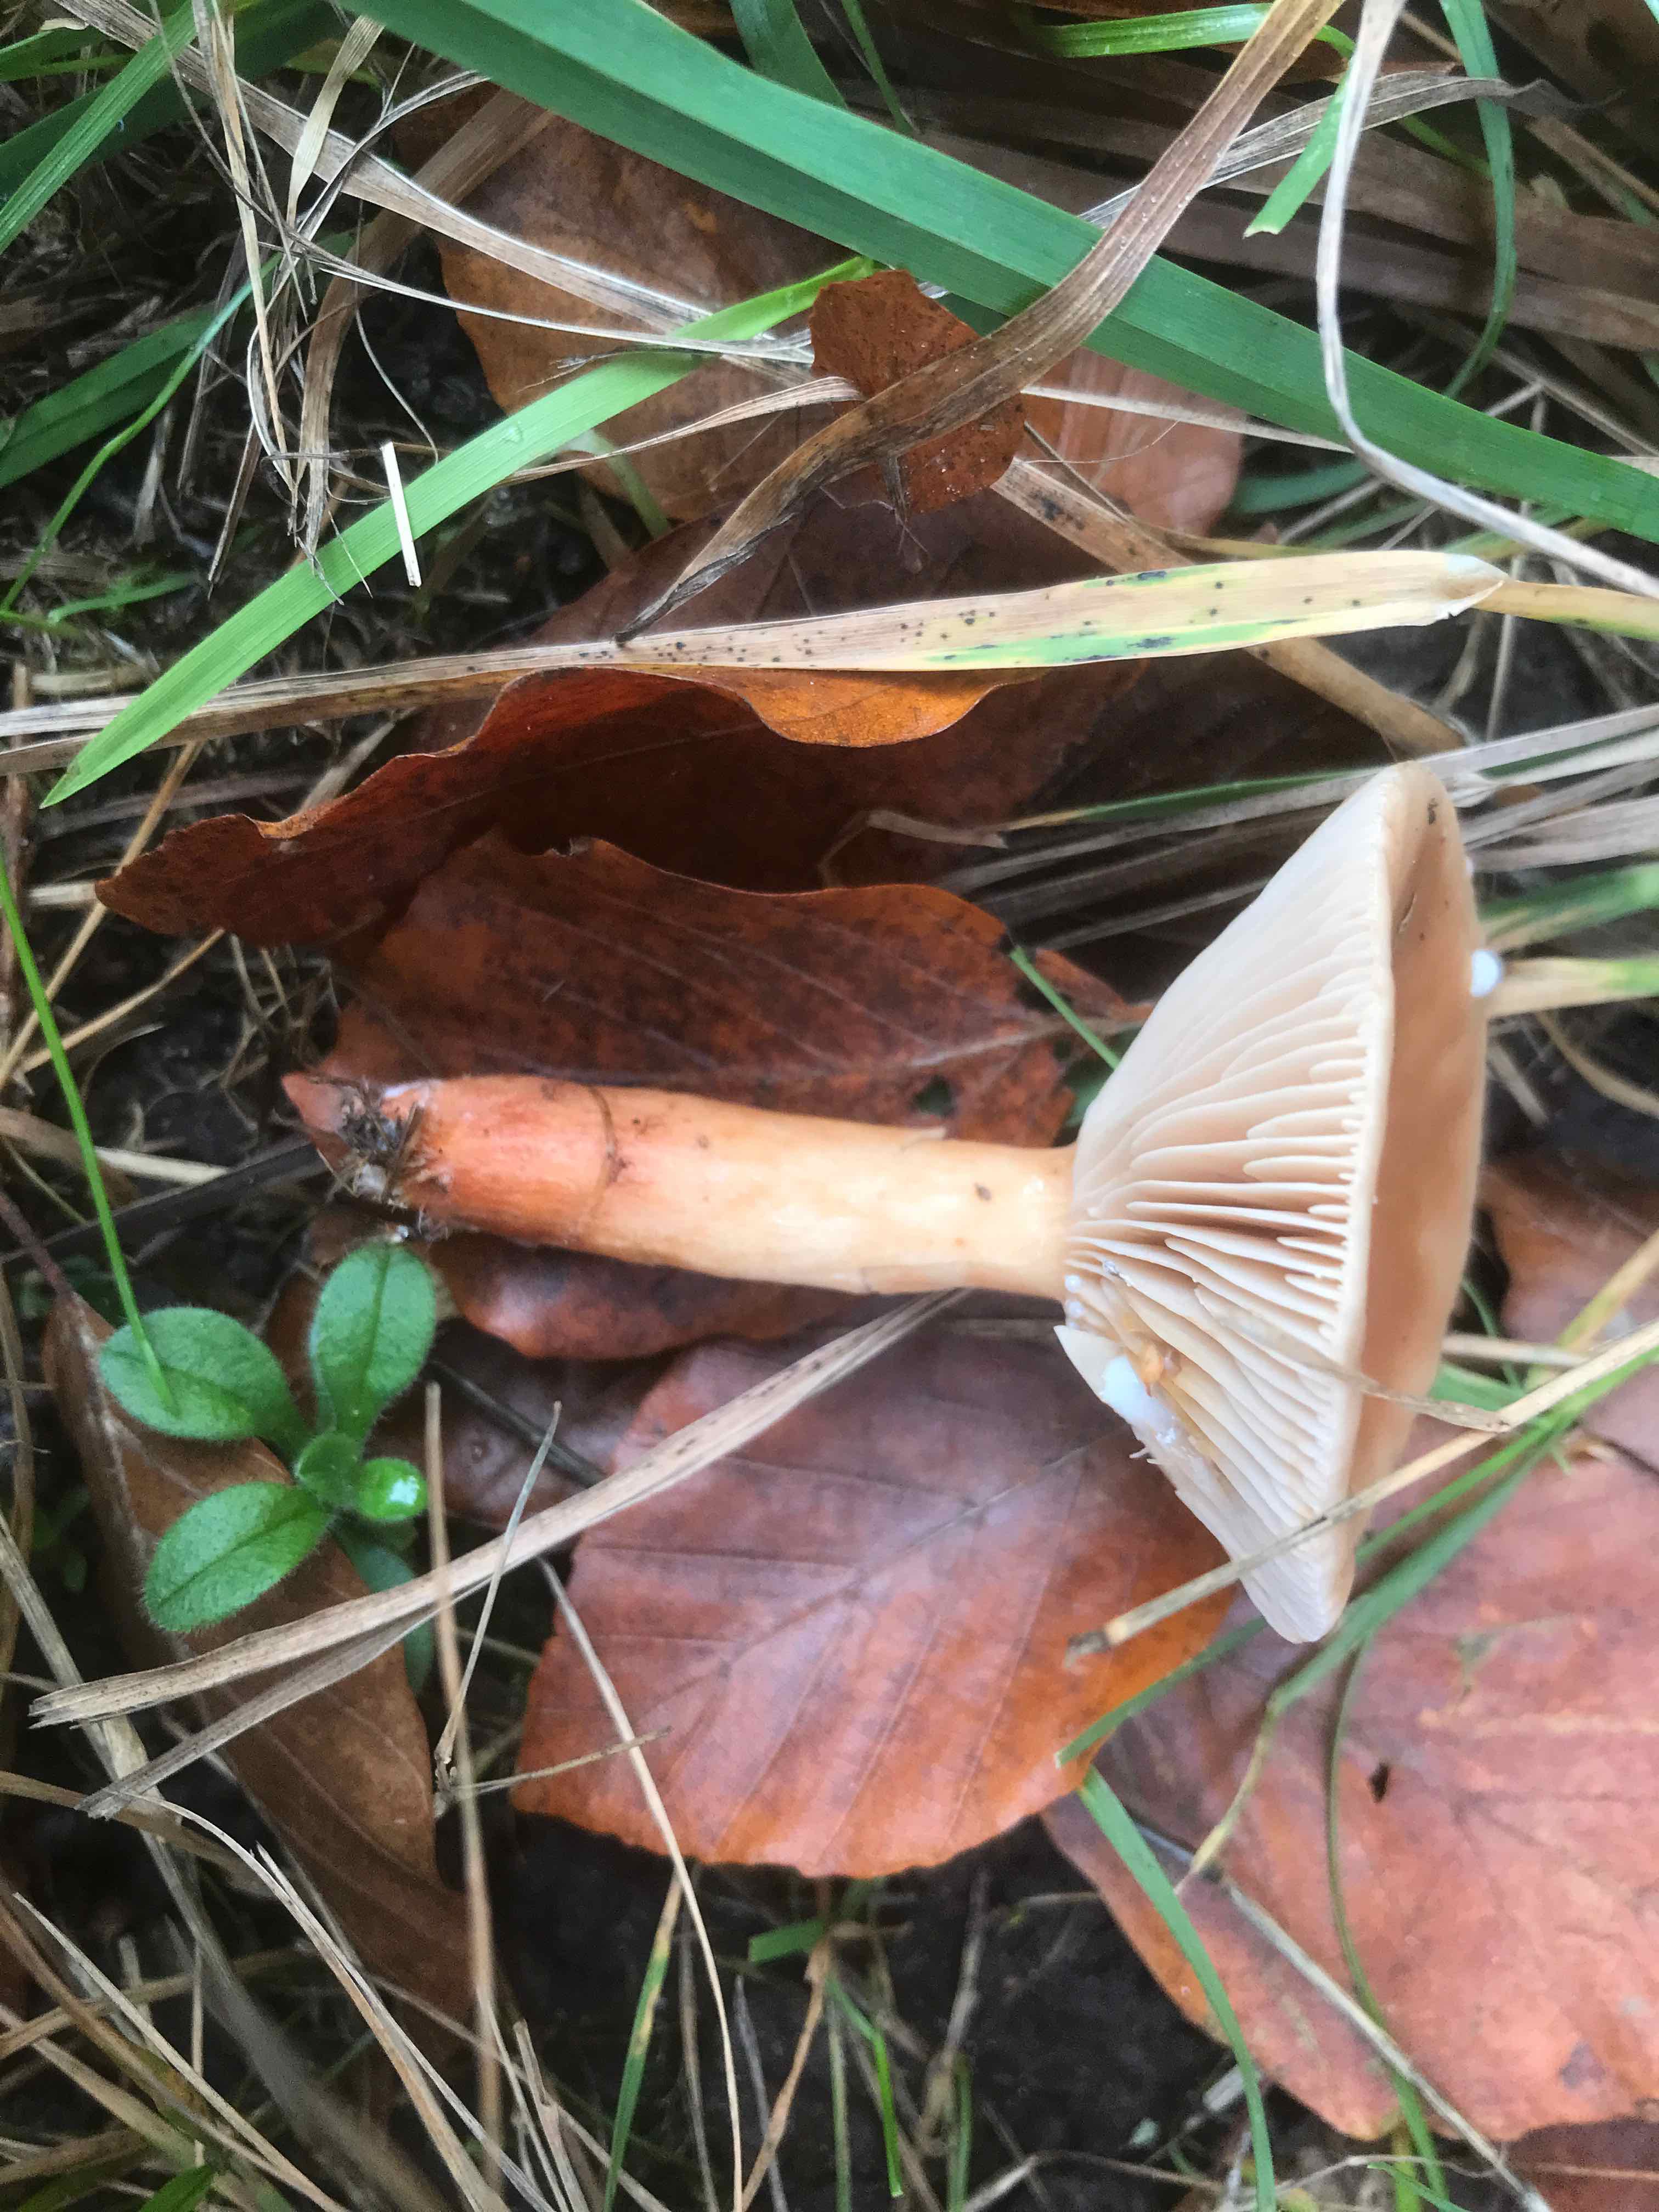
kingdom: Fungi
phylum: Basidiomycota
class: Agaricomycetes
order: Russulales
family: Russulaceae
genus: Lactarius
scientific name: Lactarius subdulcis
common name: sødlig mælkehat
